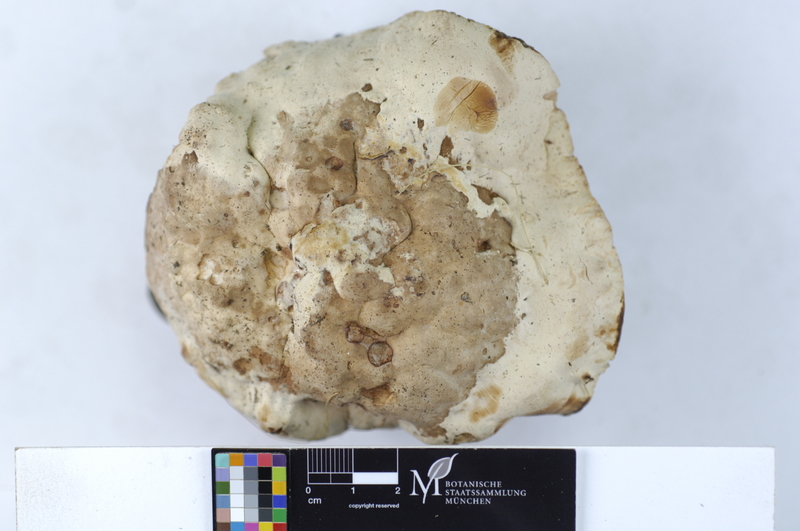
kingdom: Plantae
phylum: Tracheophyta
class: Pinopsida
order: Pinales
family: Pinaceae
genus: Pinus
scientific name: Pinus
